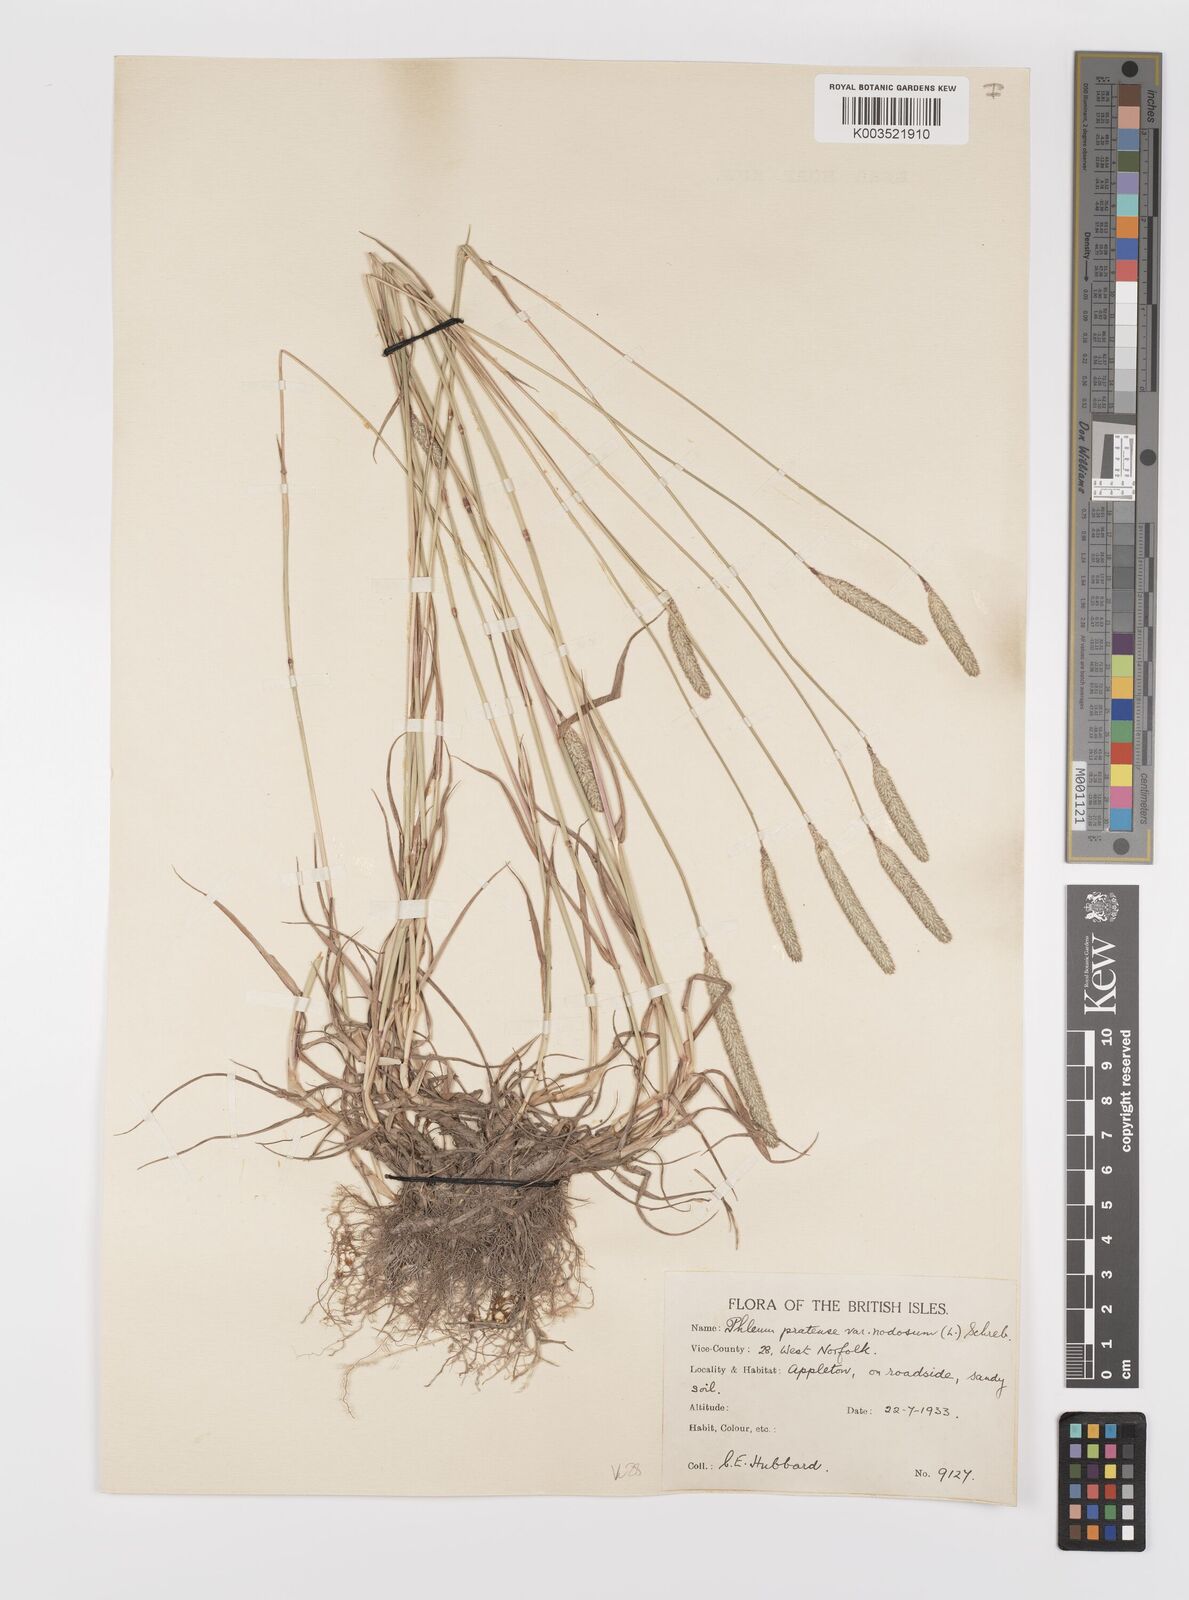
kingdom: Plantae
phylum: Tracheophyta
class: Liliopsida
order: Poales
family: Poaceae
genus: Phleum
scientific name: Phleum bertolonii
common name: Smaller cat's-tail
